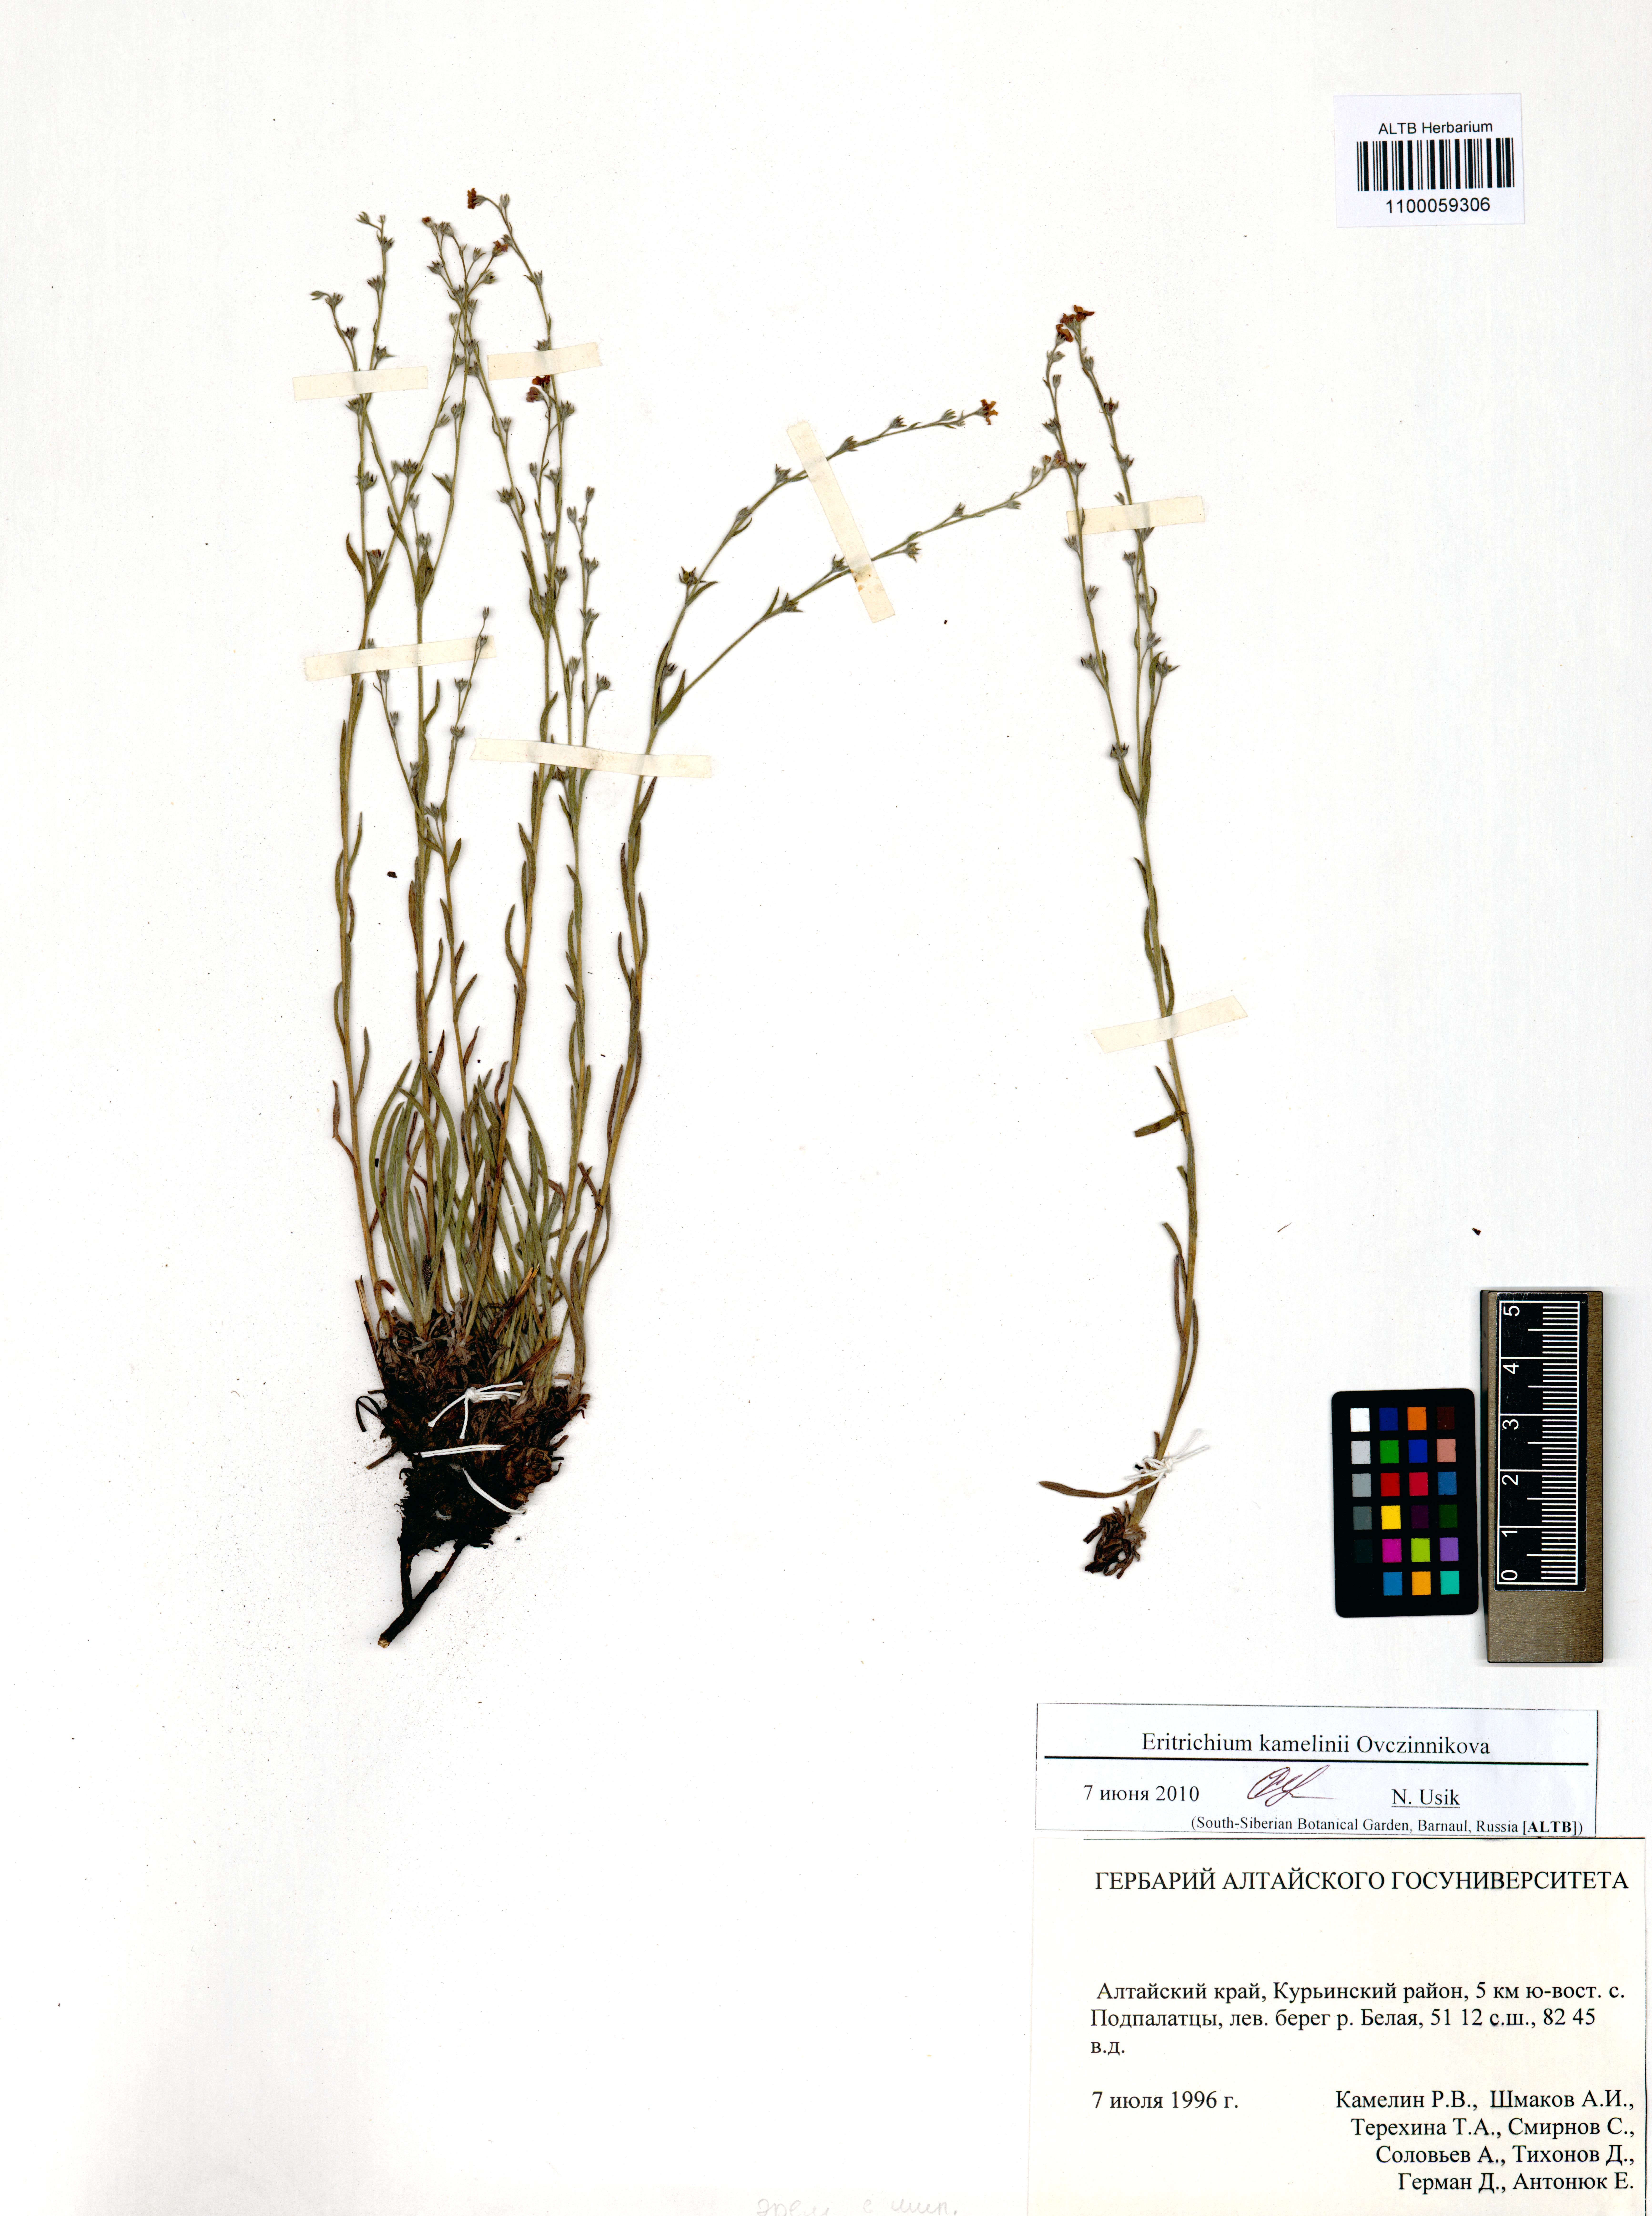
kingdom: Plantae
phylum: Tracheophyta
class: Magnoliopsida
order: Boraginales
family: Boraginaceae
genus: Eritrichium
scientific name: Eritrichium kamelinii
